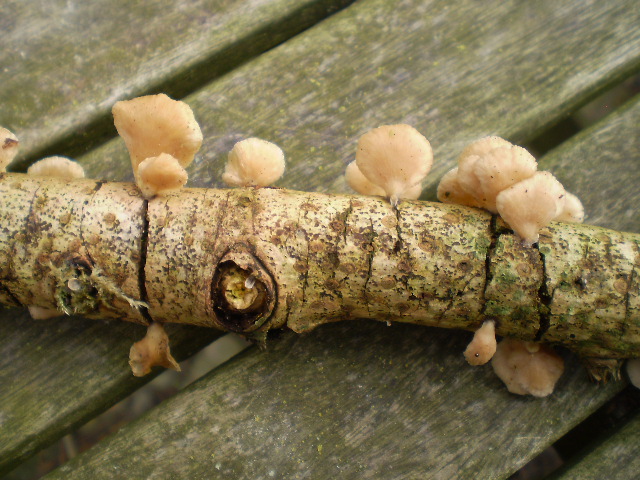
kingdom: Fungi
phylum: Basidiomycota
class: Agaricomycetes
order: Agaricales
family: Mycenaceae
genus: Panellus
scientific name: Panellus mitis
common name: mild epaulethat
